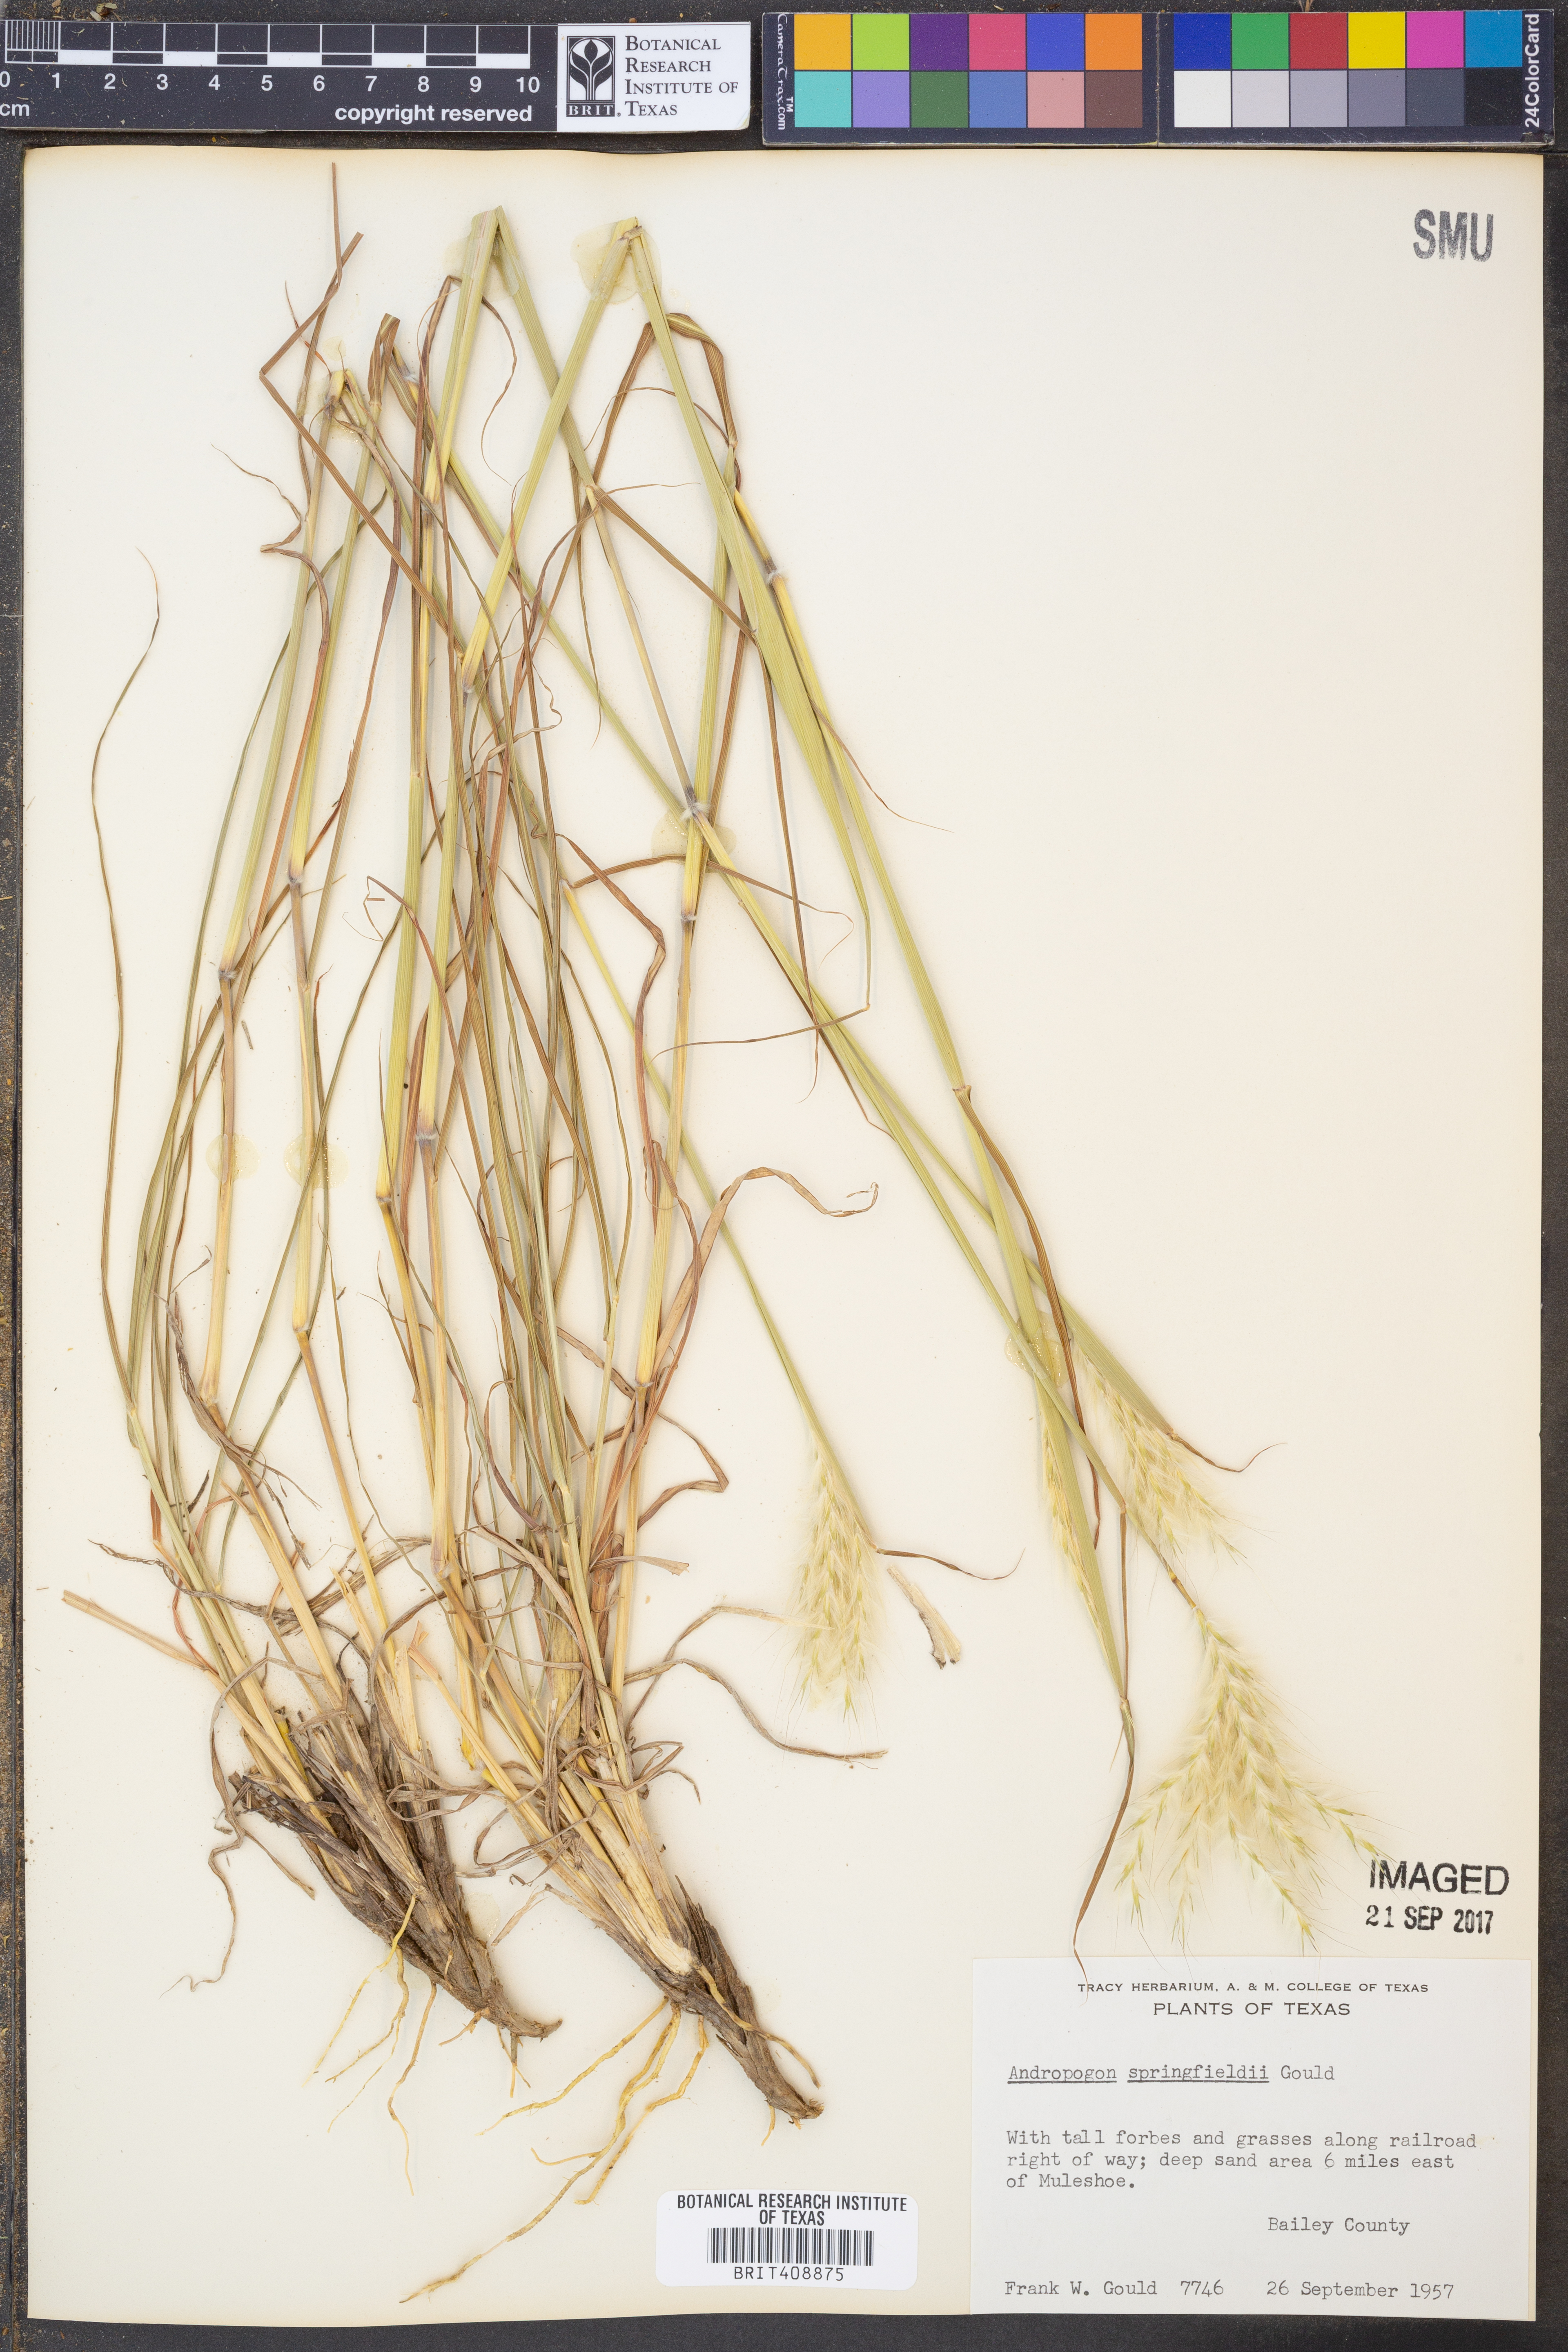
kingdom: Plantae
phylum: Tracheophyta
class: Liliopsida
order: Poales
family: Poaceae
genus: Bothriochloa
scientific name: Bothriochloa springfieldii
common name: Springfield bluestem
